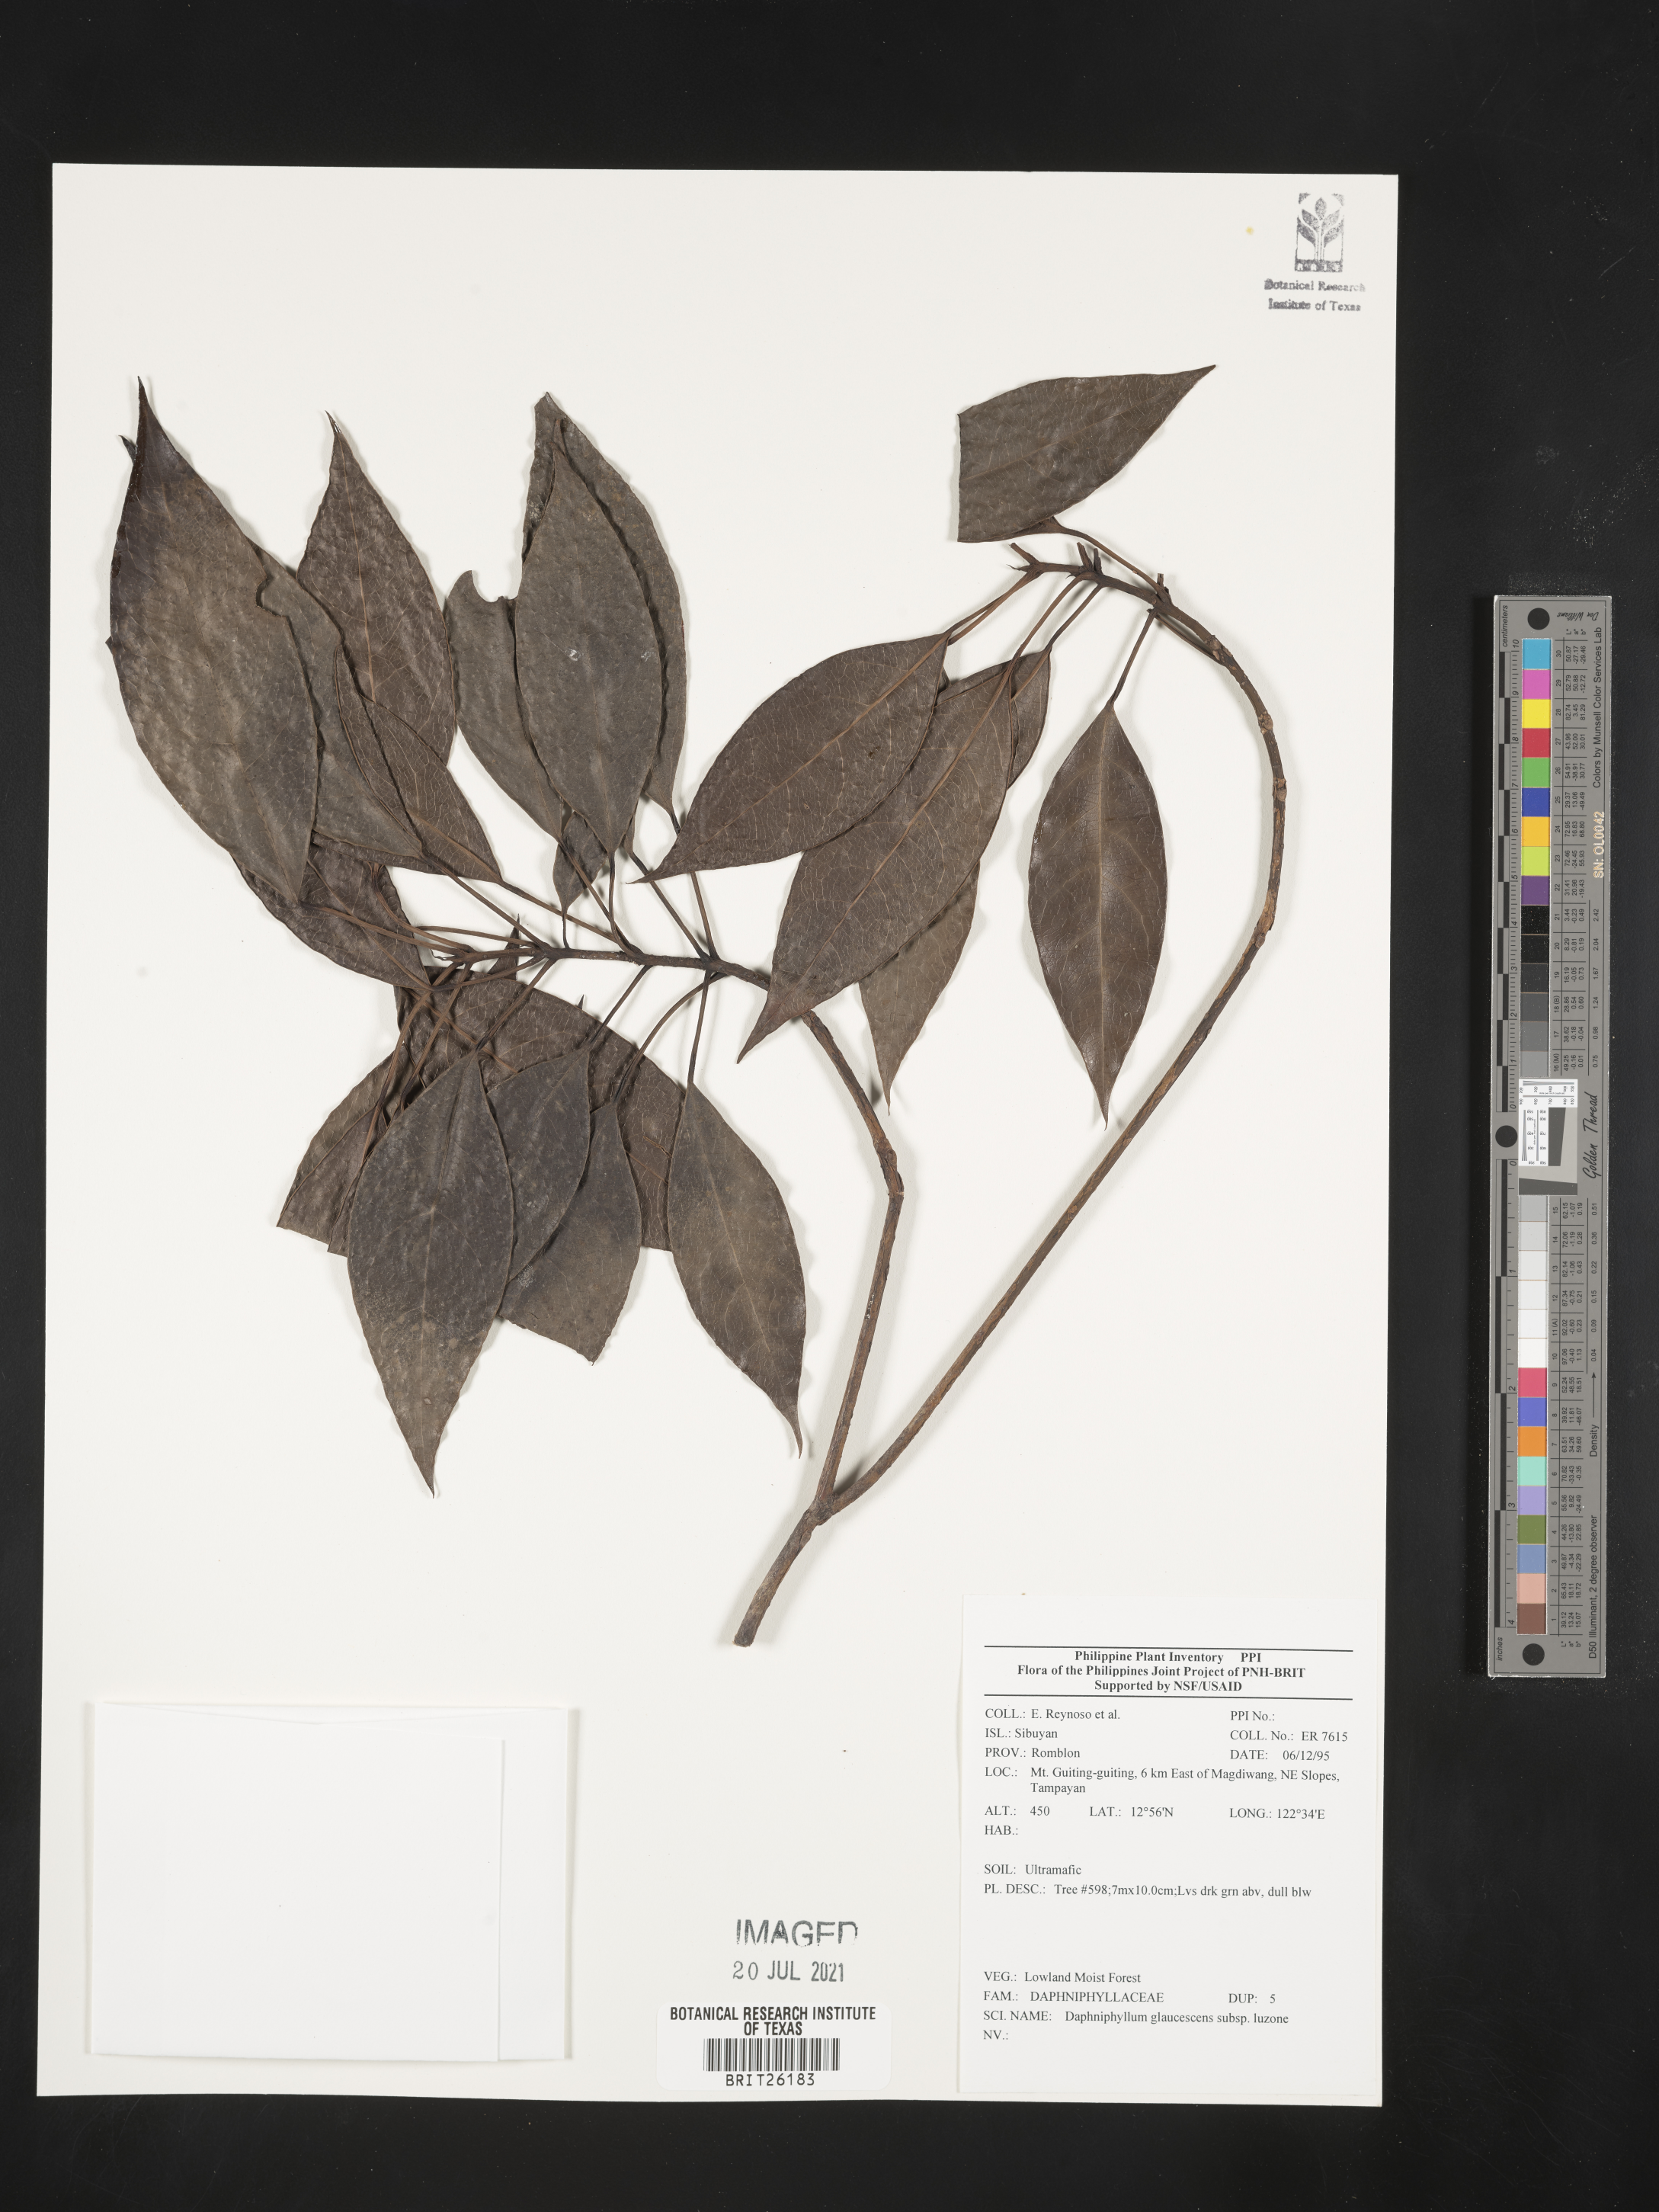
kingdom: Plantae
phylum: Tracheophyta
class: Magnoliopsida
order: Saxifragales
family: Daphniphyllaceae
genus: Daphniphyllum
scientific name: Daphniphyllum glaucescens
